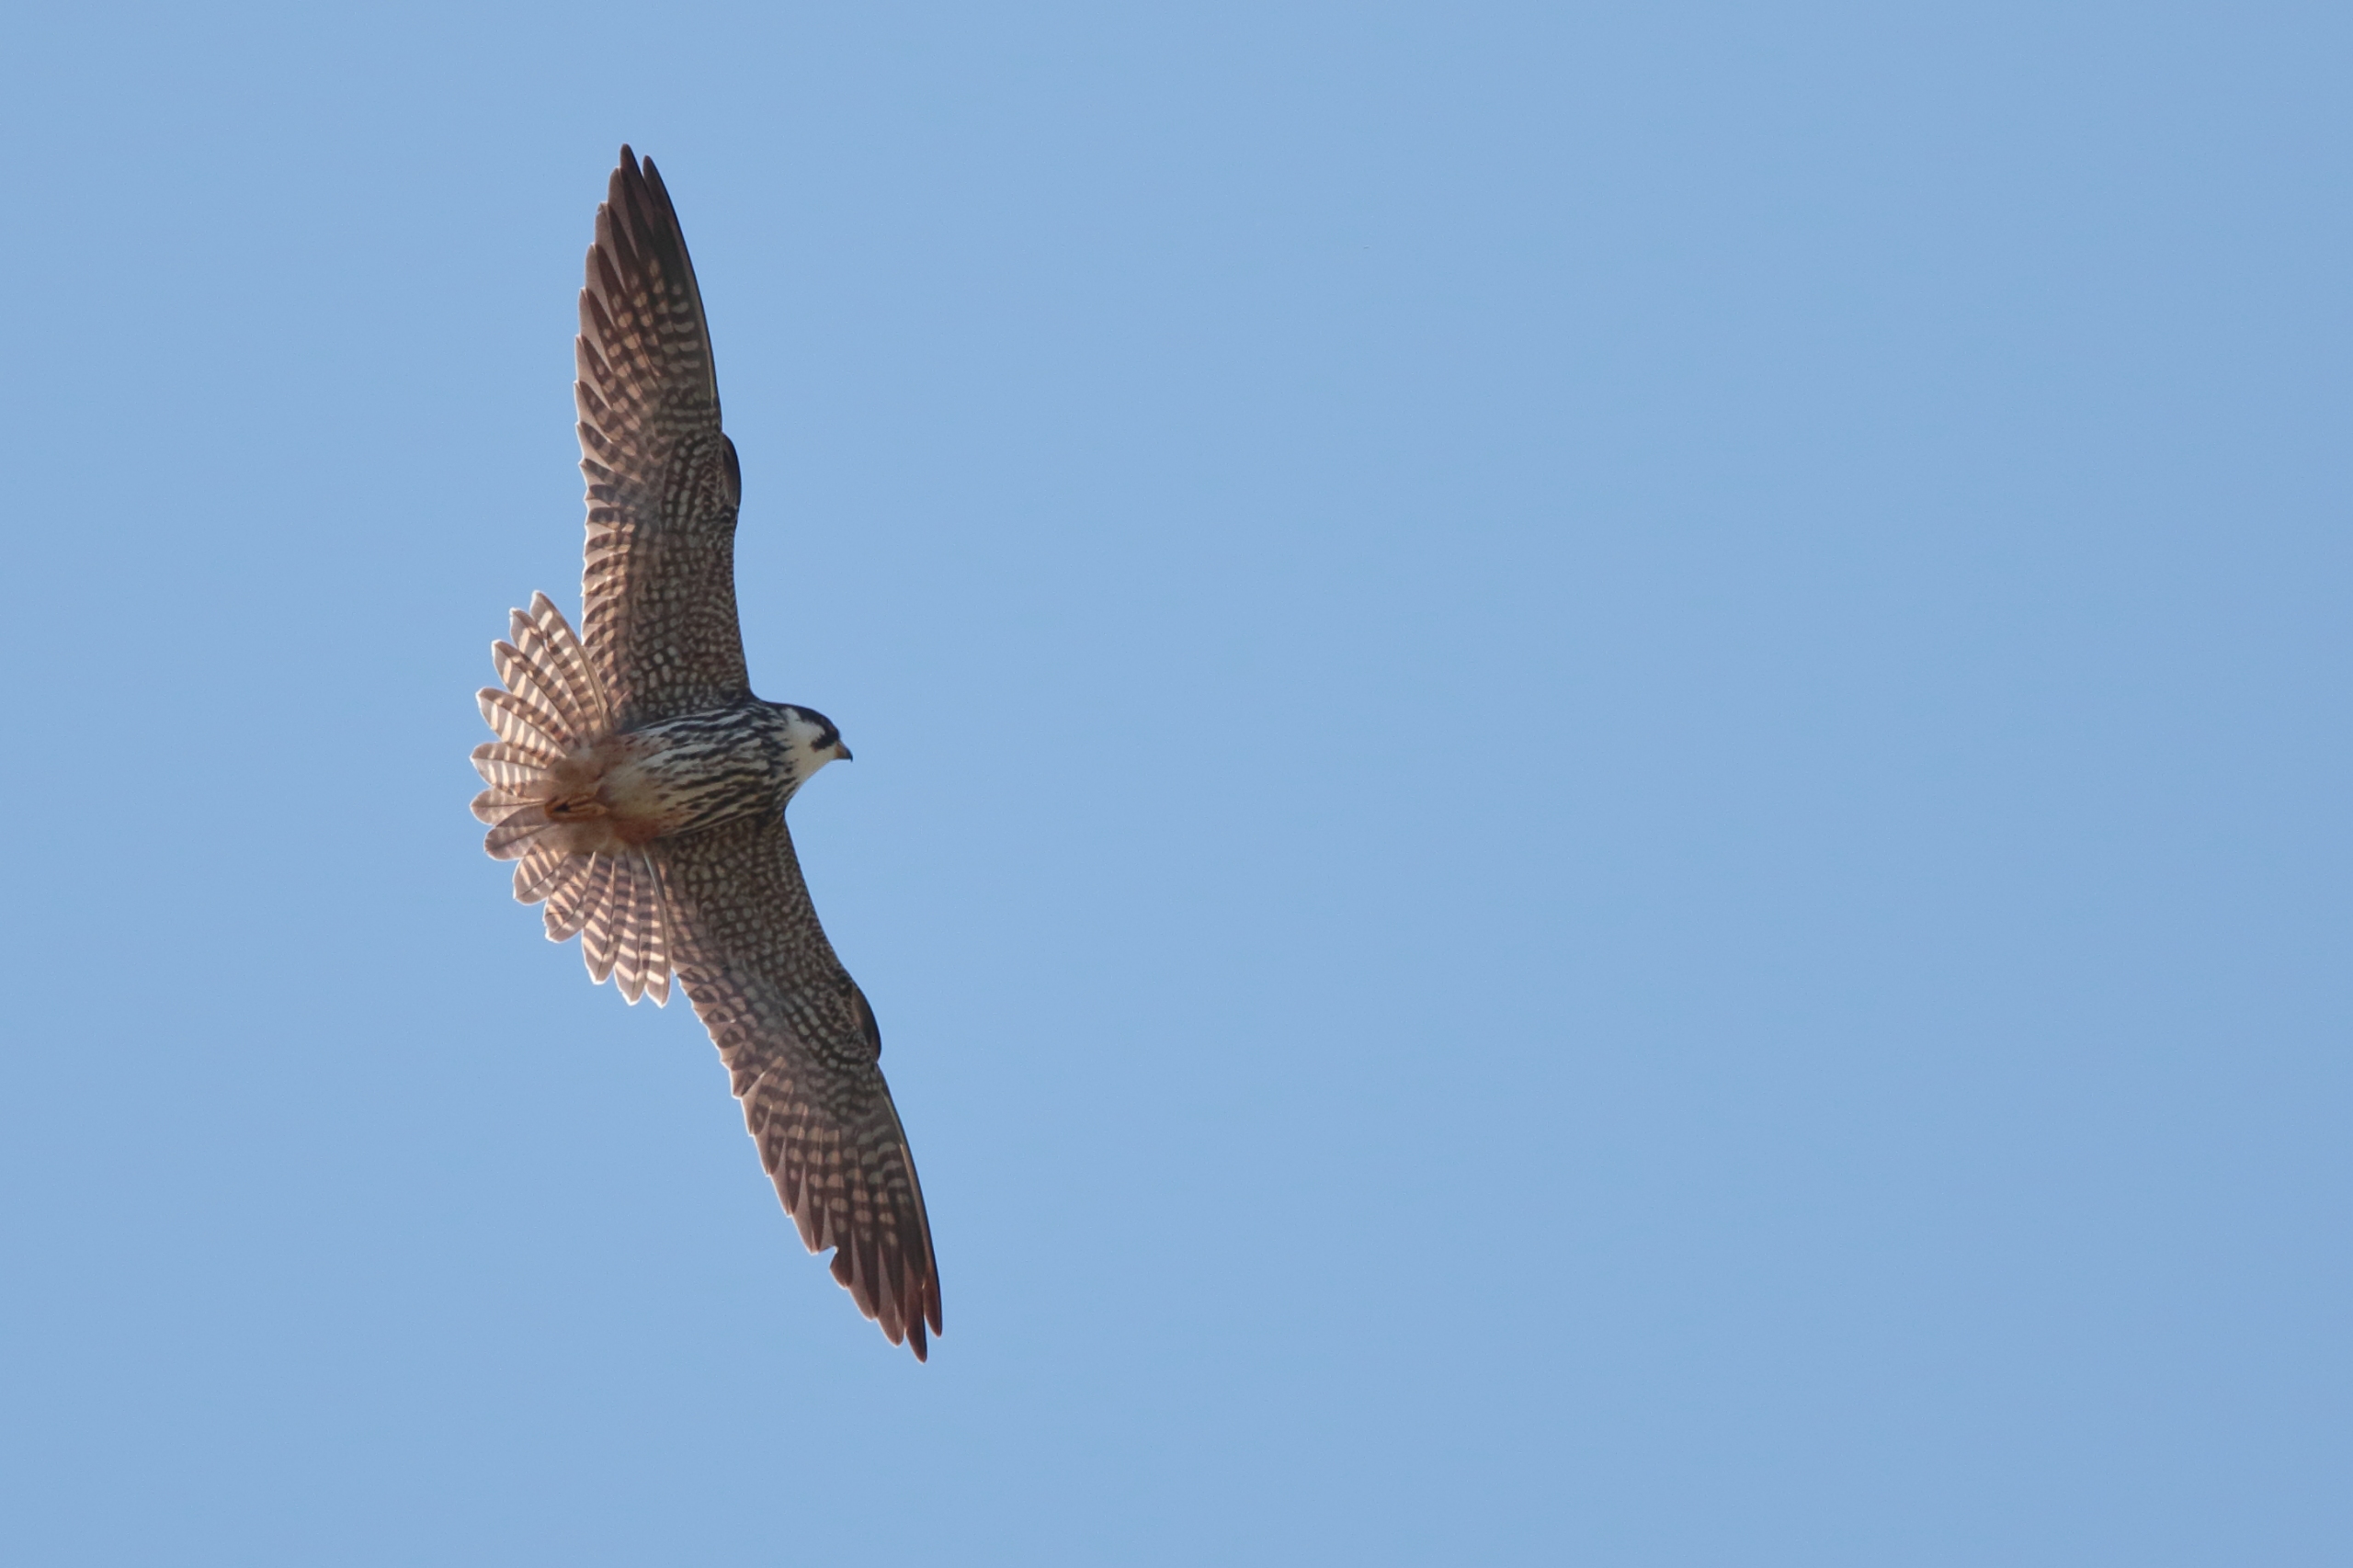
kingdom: Animalia
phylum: Chordata
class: Aves
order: Falconiformes
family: Falconidae
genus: Falco
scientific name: Falco subbuteo
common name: Lærkefalk
